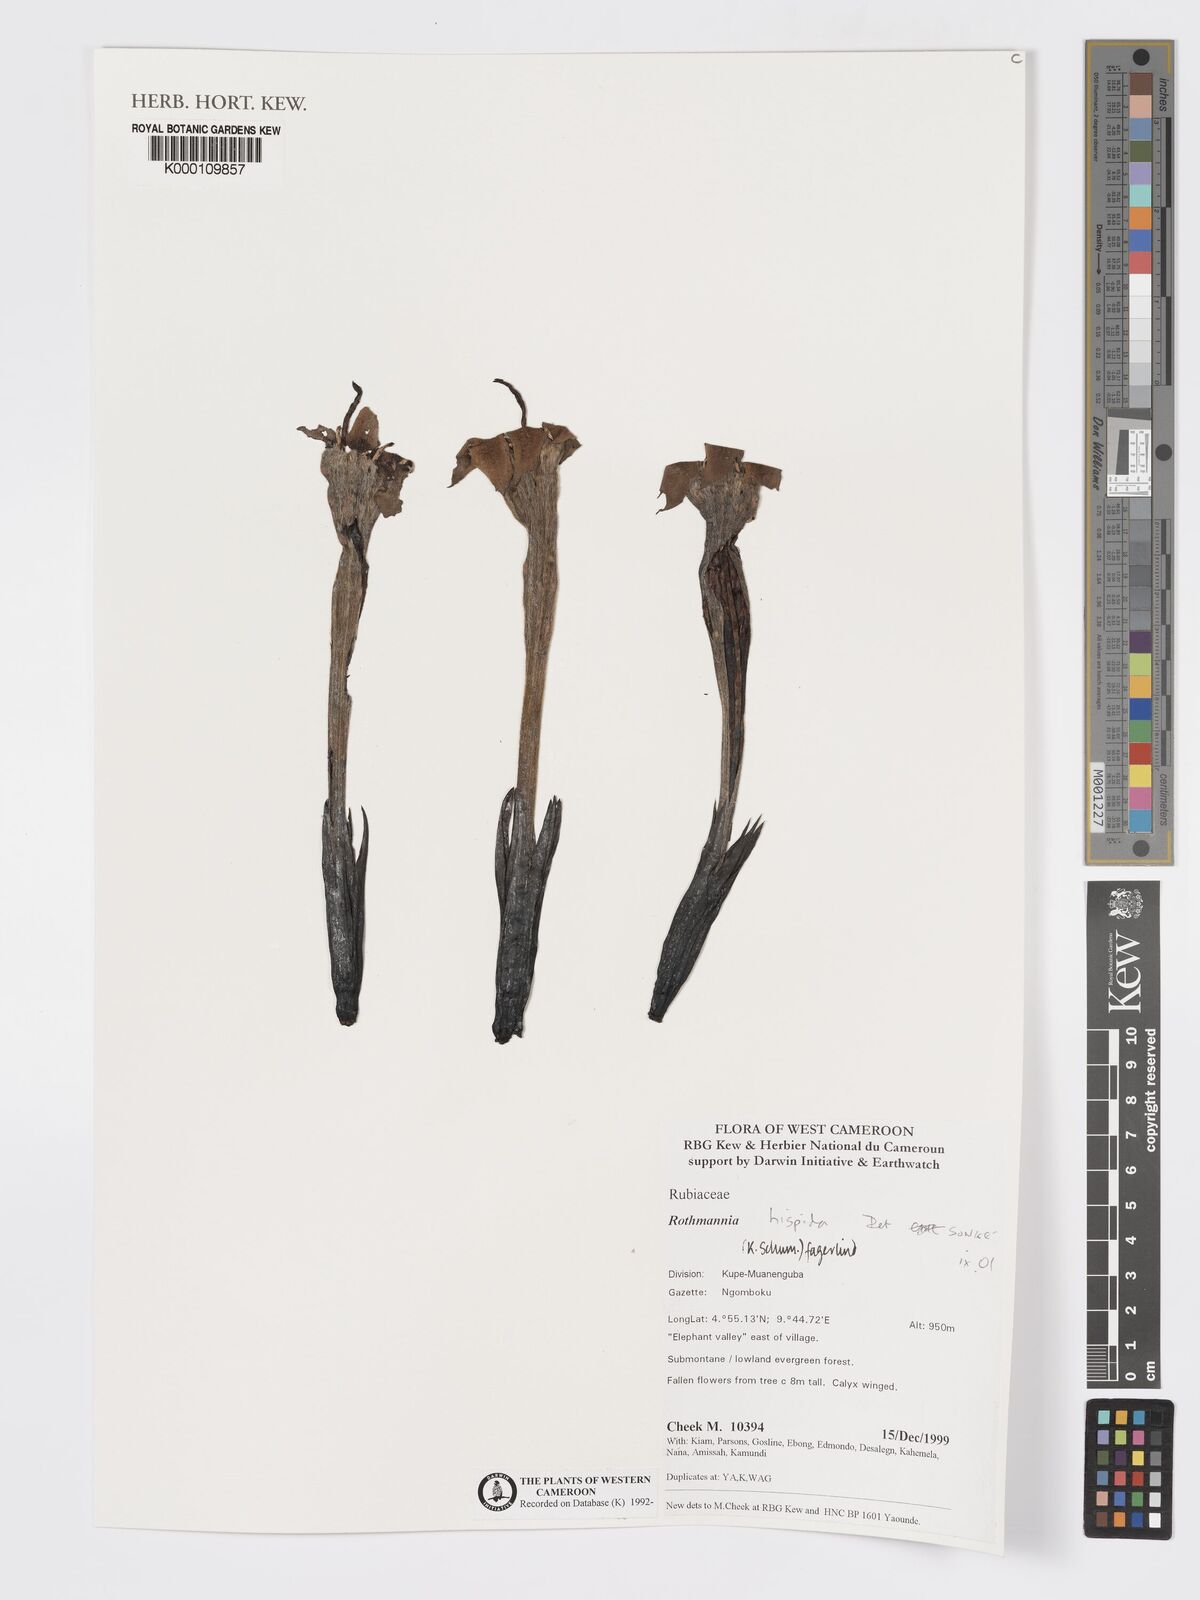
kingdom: Plantae
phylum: Tracheophyta
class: Magnoliopsida
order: Gentianales
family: Rubiaceae
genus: Rothmannia
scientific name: Rothmannia hispida
